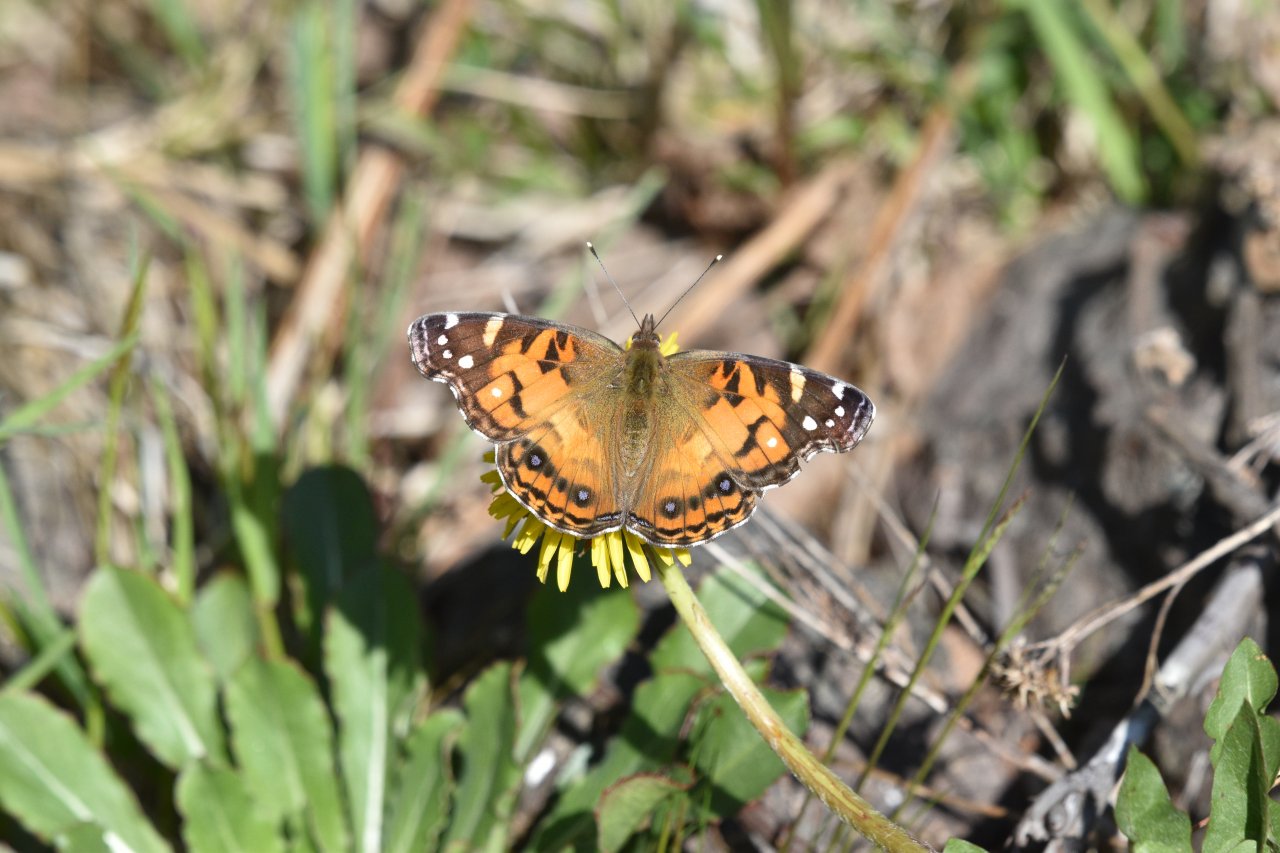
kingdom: Animalia
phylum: Arthropoda
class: Insecta
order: Lepidoptera
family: Nymphalidae
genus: Vanessa
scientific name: Vanessa virginiensis
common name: American Lady
